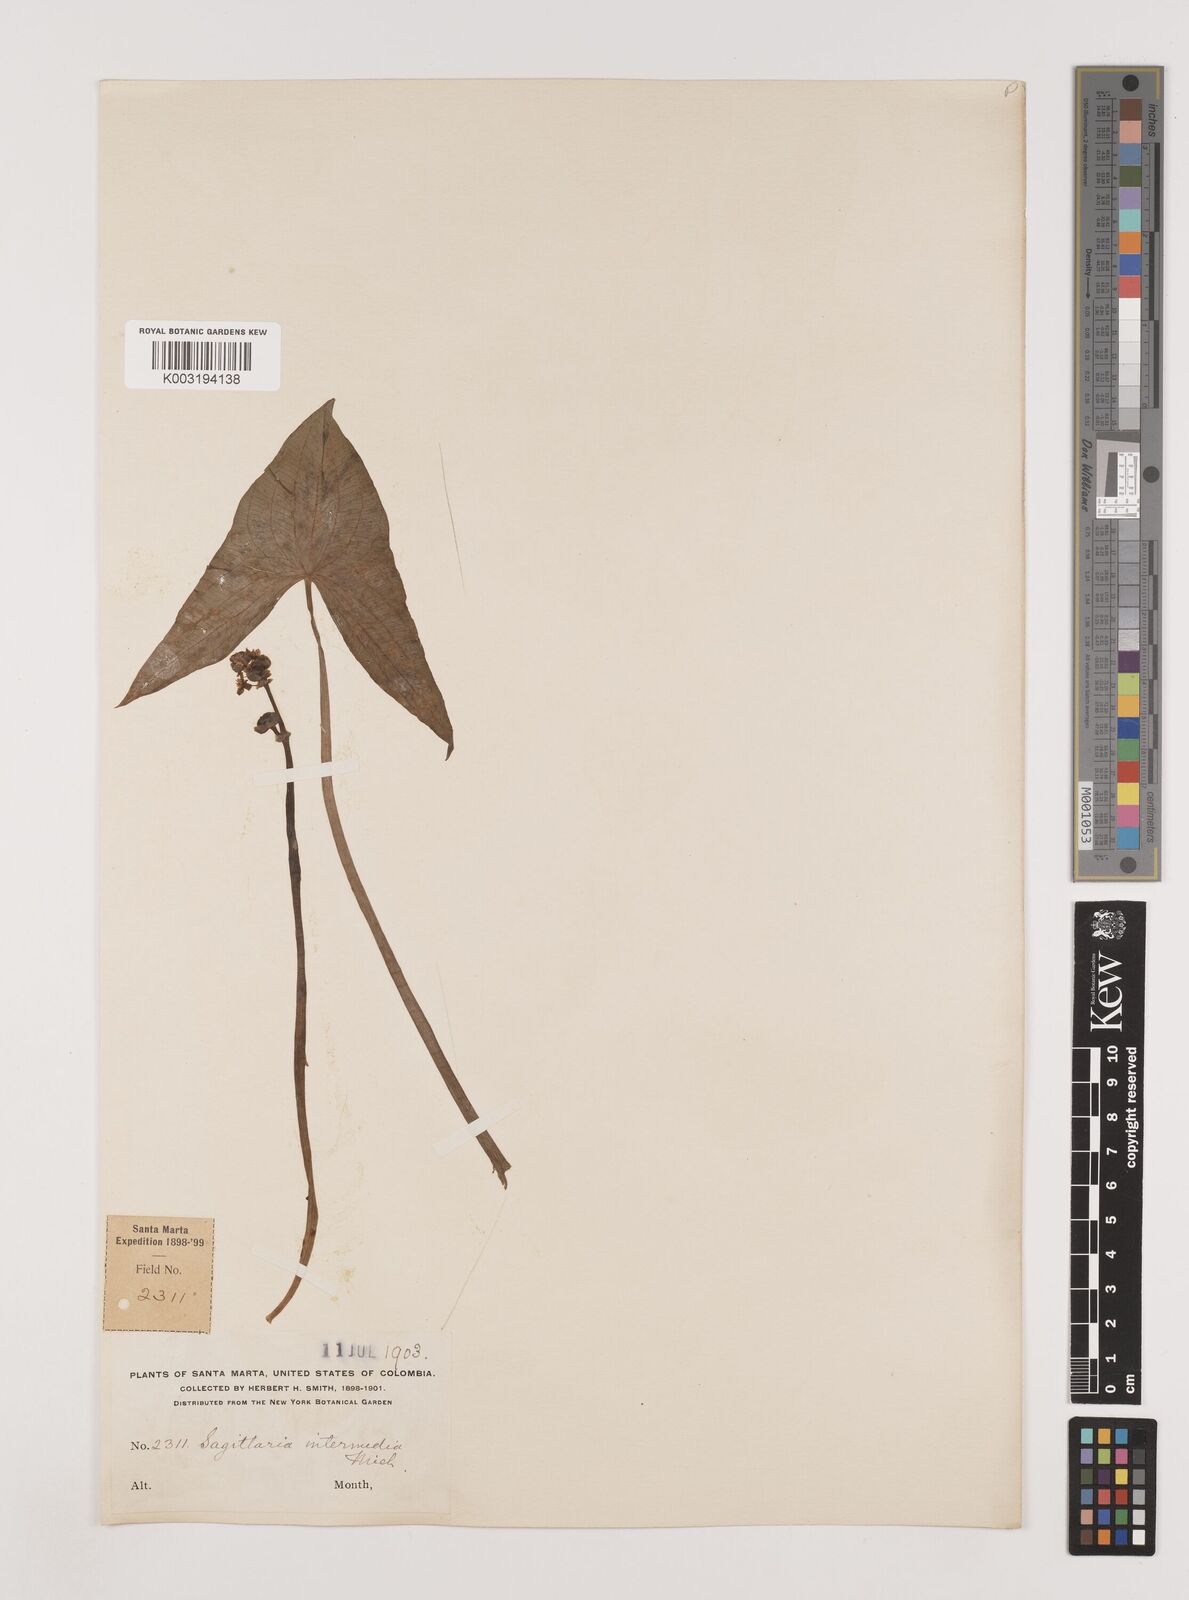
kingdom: Plantae
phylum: Tracheophyta
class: Liliopsida
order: Alismatales
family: Alismataceae
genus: Sagittaria
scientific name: Sagittaria intermedia
